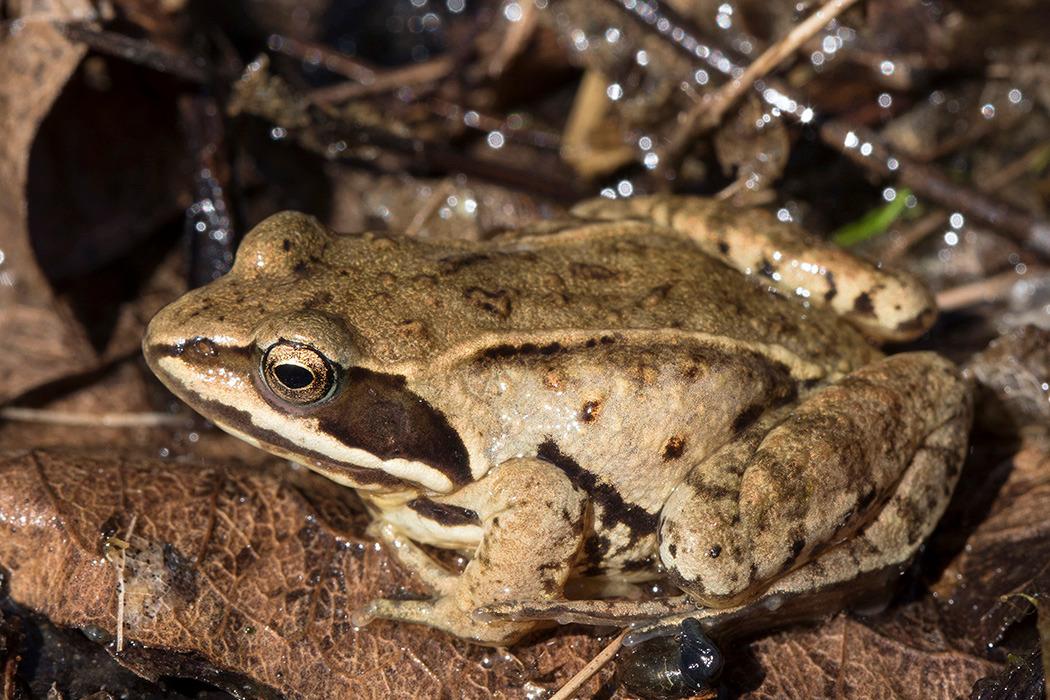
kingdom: Animalia
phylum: Chordata
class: Amphibia
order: Anura
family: Ranidae
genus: Rana
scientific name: Rana arvalis
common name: Spidssnudet frø
